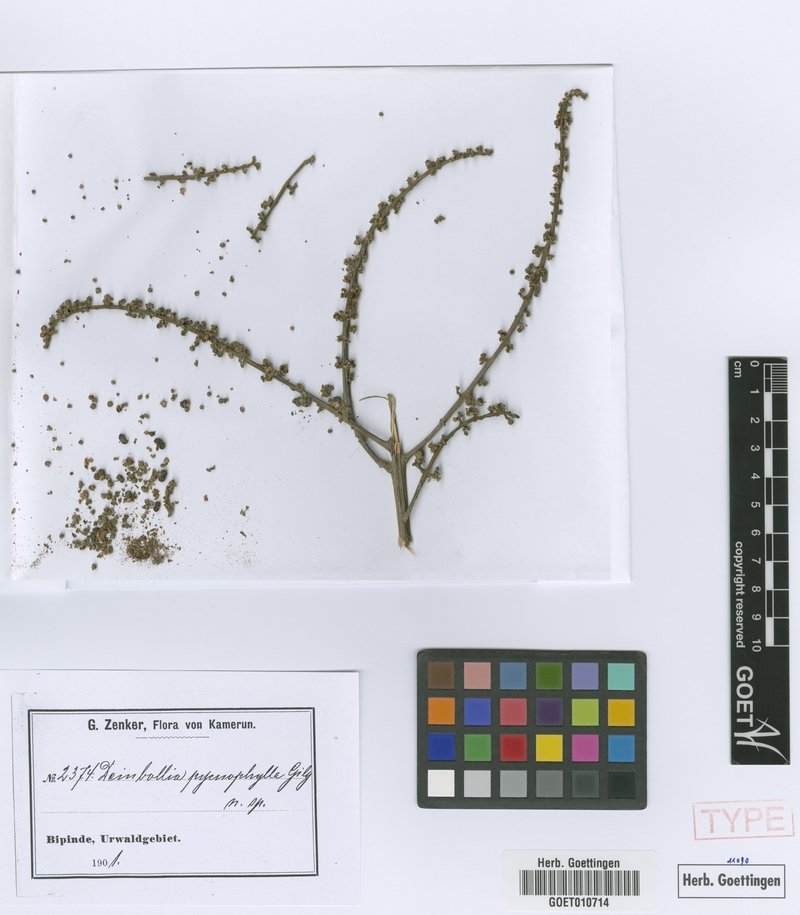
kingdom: Plantae
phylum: Tracheophyta
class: Magnoliopsida
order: Sapindales
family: Sapindaceae
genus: Deinbollia
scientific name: Deinbollia pycnophylla
